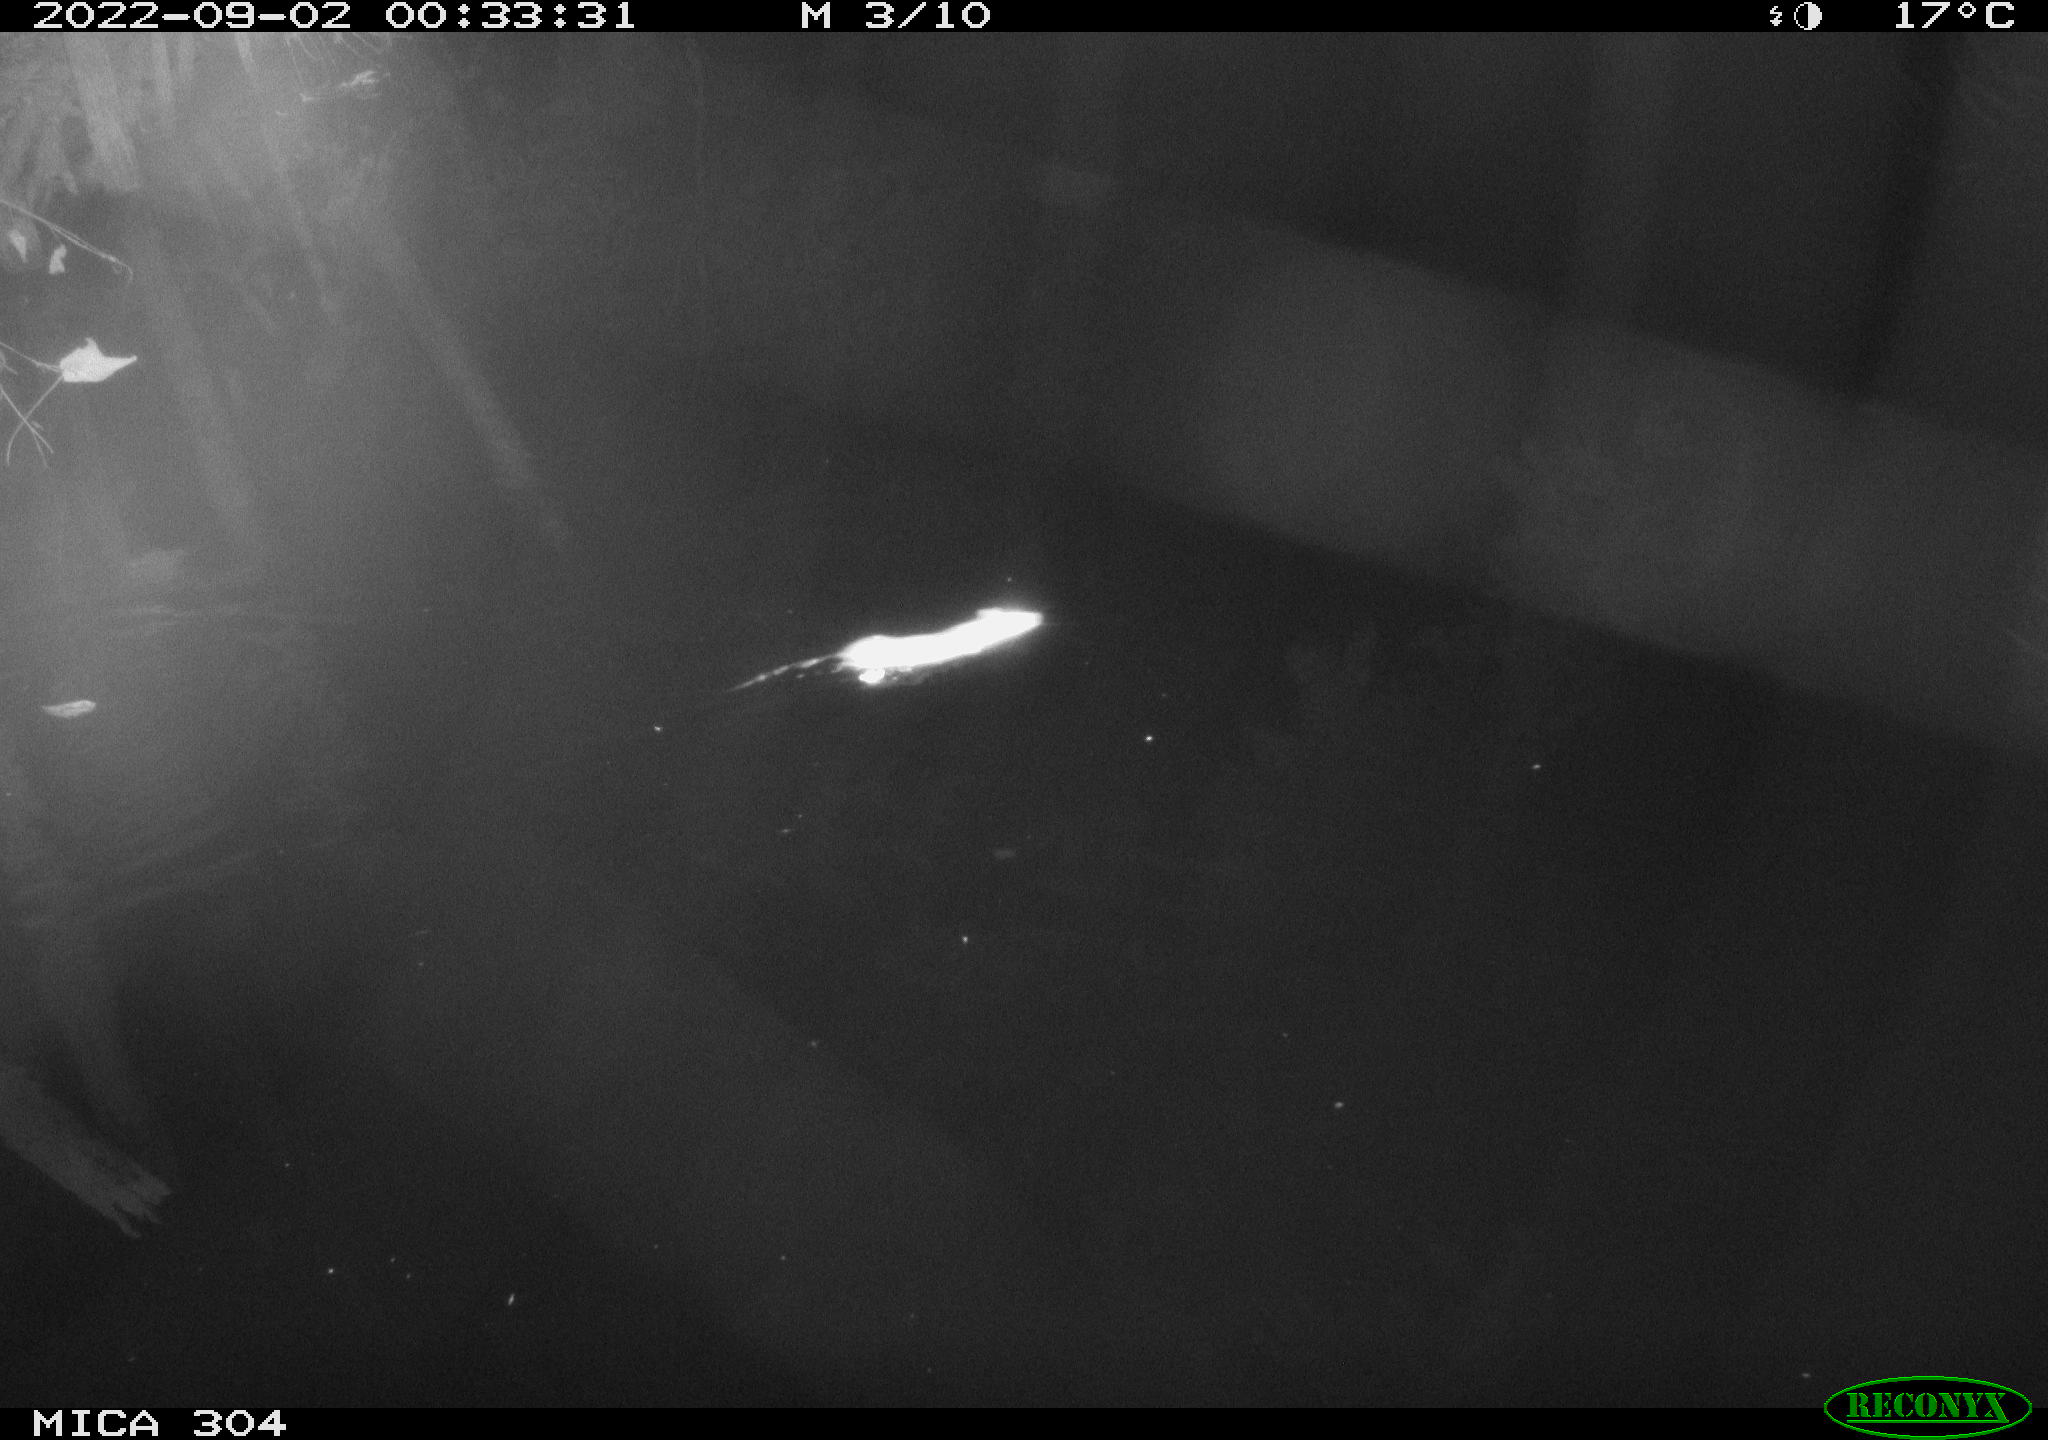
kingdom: Animalia
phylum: Chordata
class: Mammalia
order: Rodentia
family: Muridae
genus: Rattus
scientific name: Rattus norvegicus
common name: Brown rat
